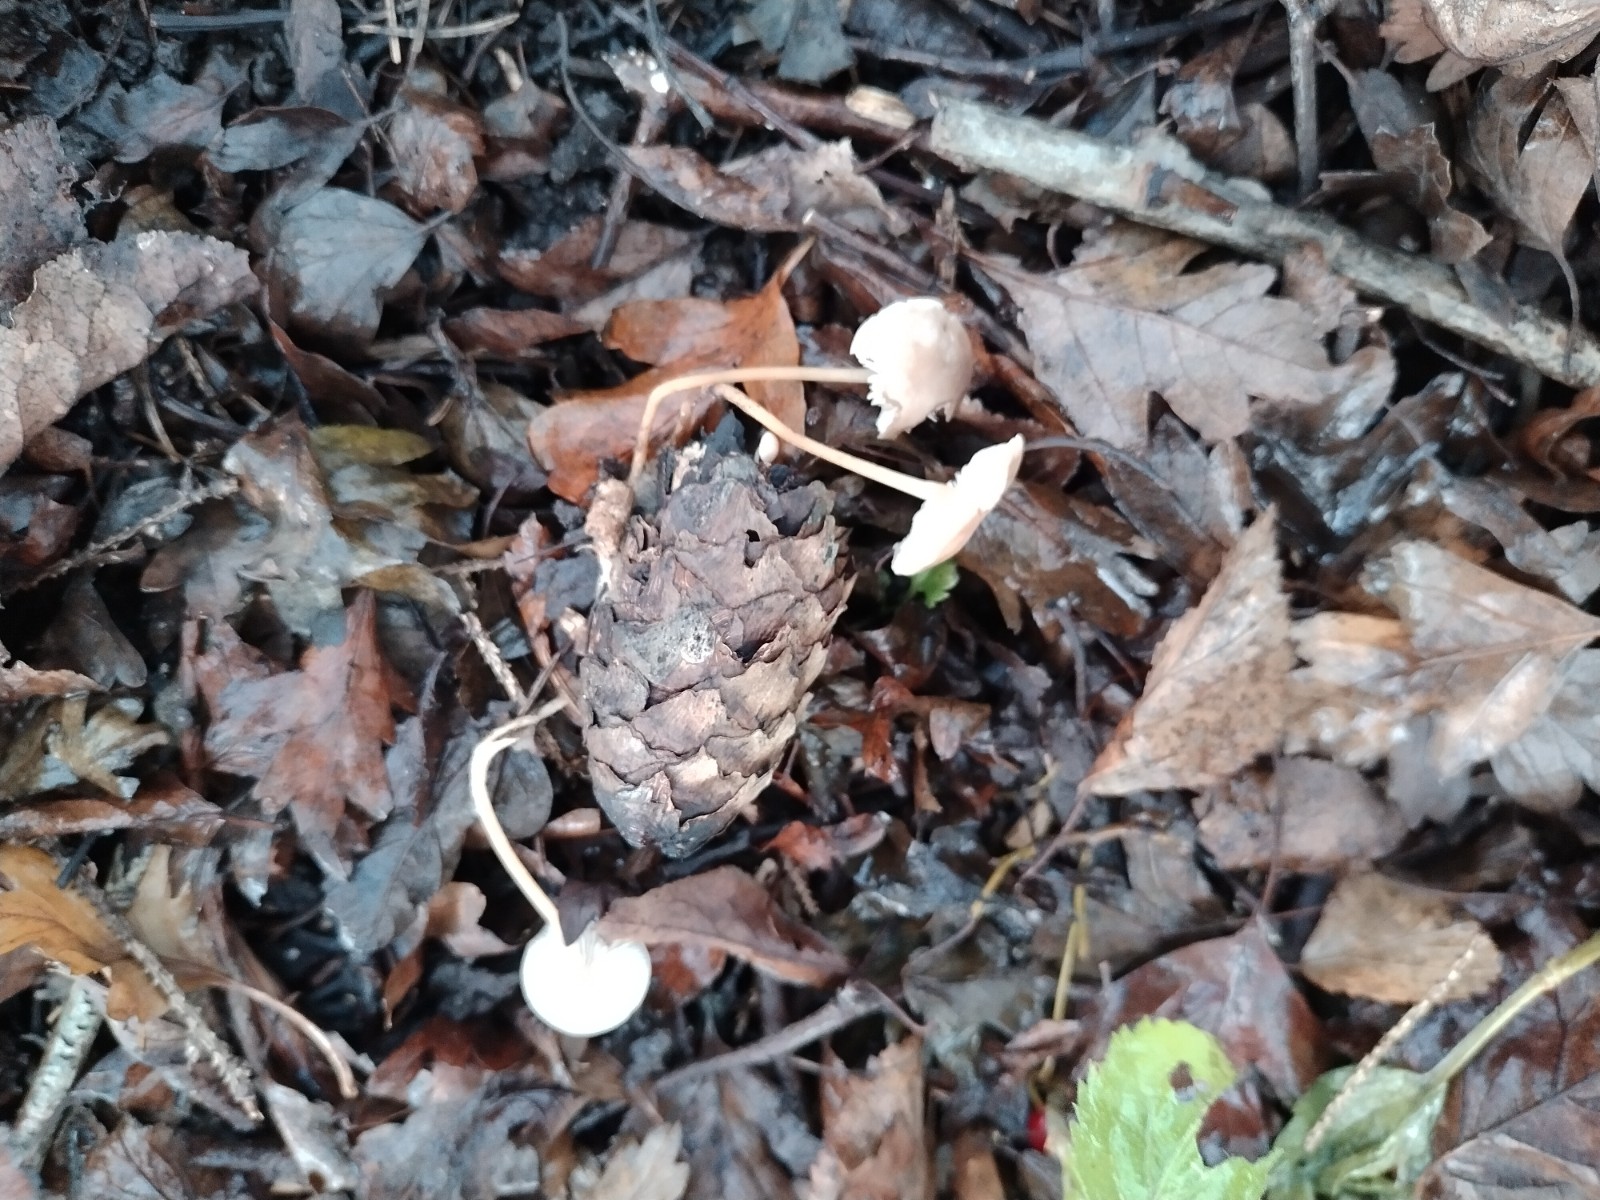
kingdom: Fungi
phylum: Basidiomycota
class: Agaricomycetes
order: Agaricales
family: Physalacriaceae
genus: Strobilurus
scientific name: Strobilurus esculentus
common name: gran-koglehat
